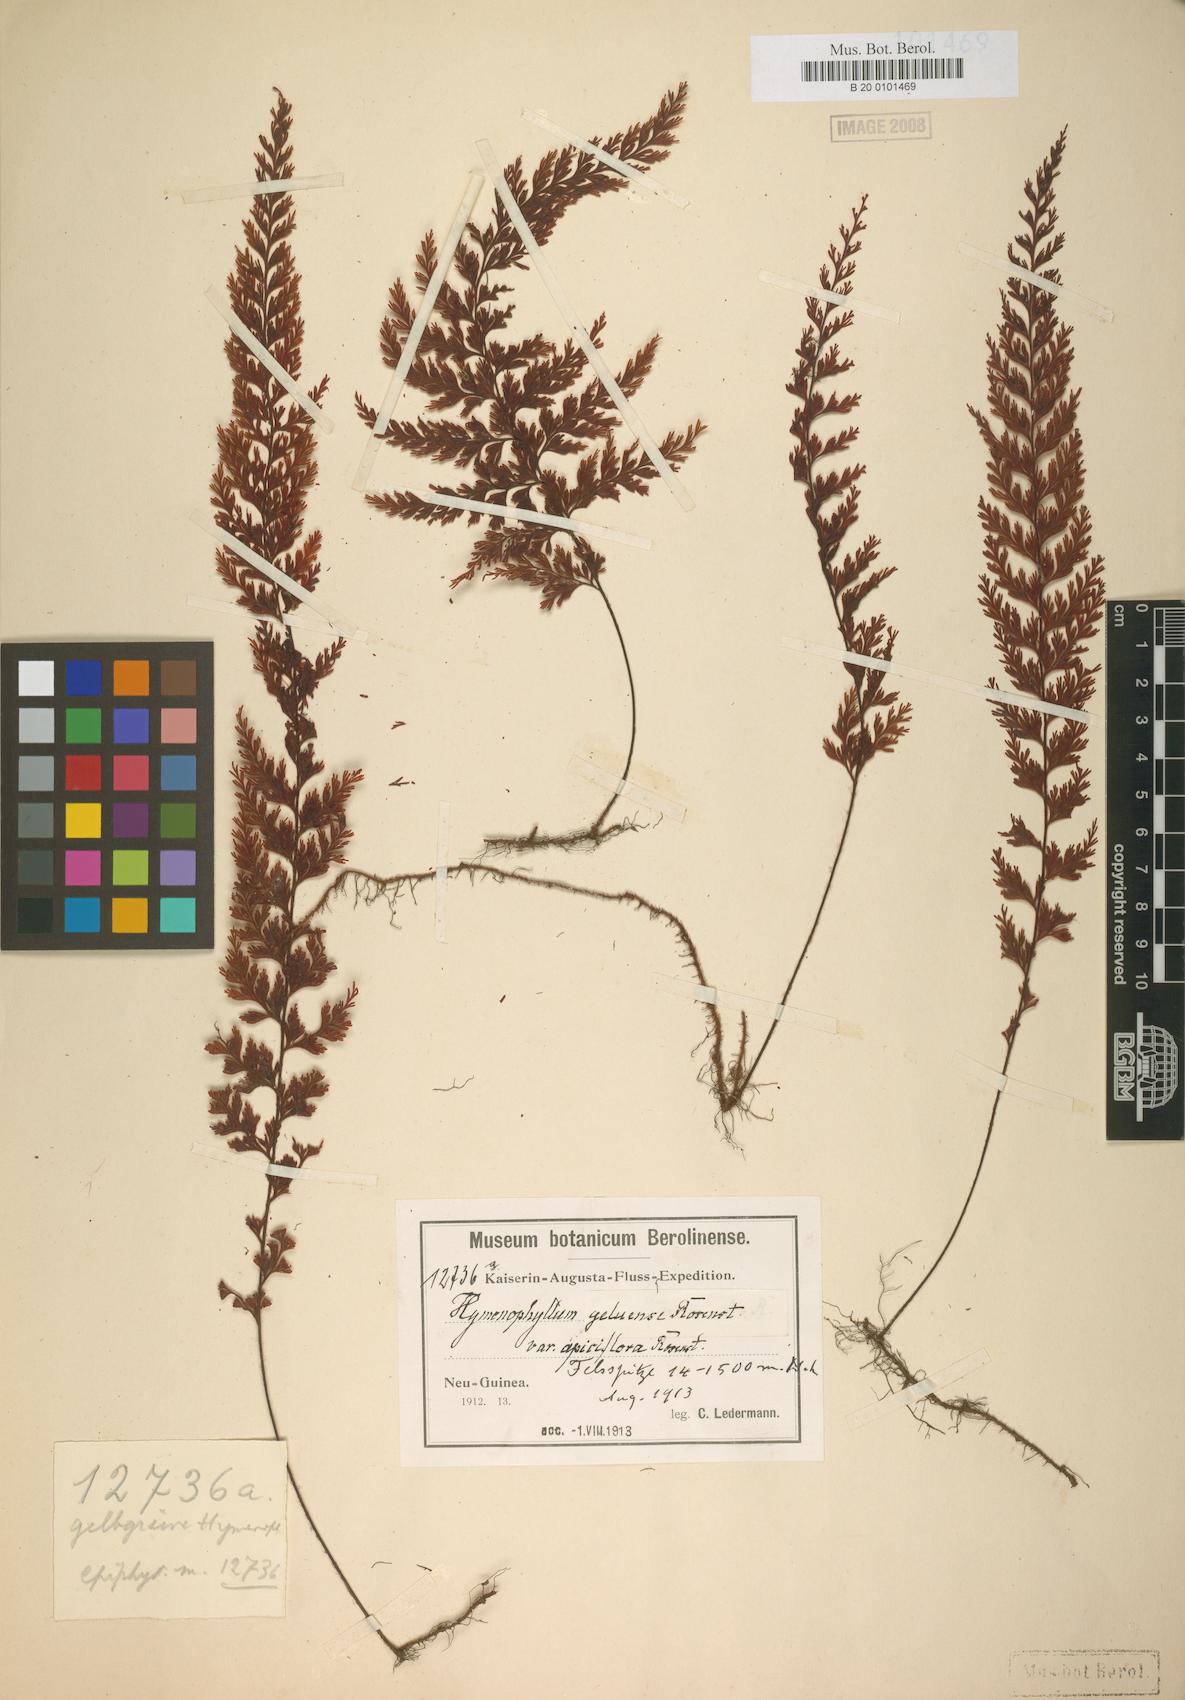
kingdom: Plantae
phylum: Tracheophyta
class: Polypodiopsida
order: Hymenophyllales
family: Hymenophyllaceae
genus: Hymenophyllum
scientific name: Hymenophyllum geluense
